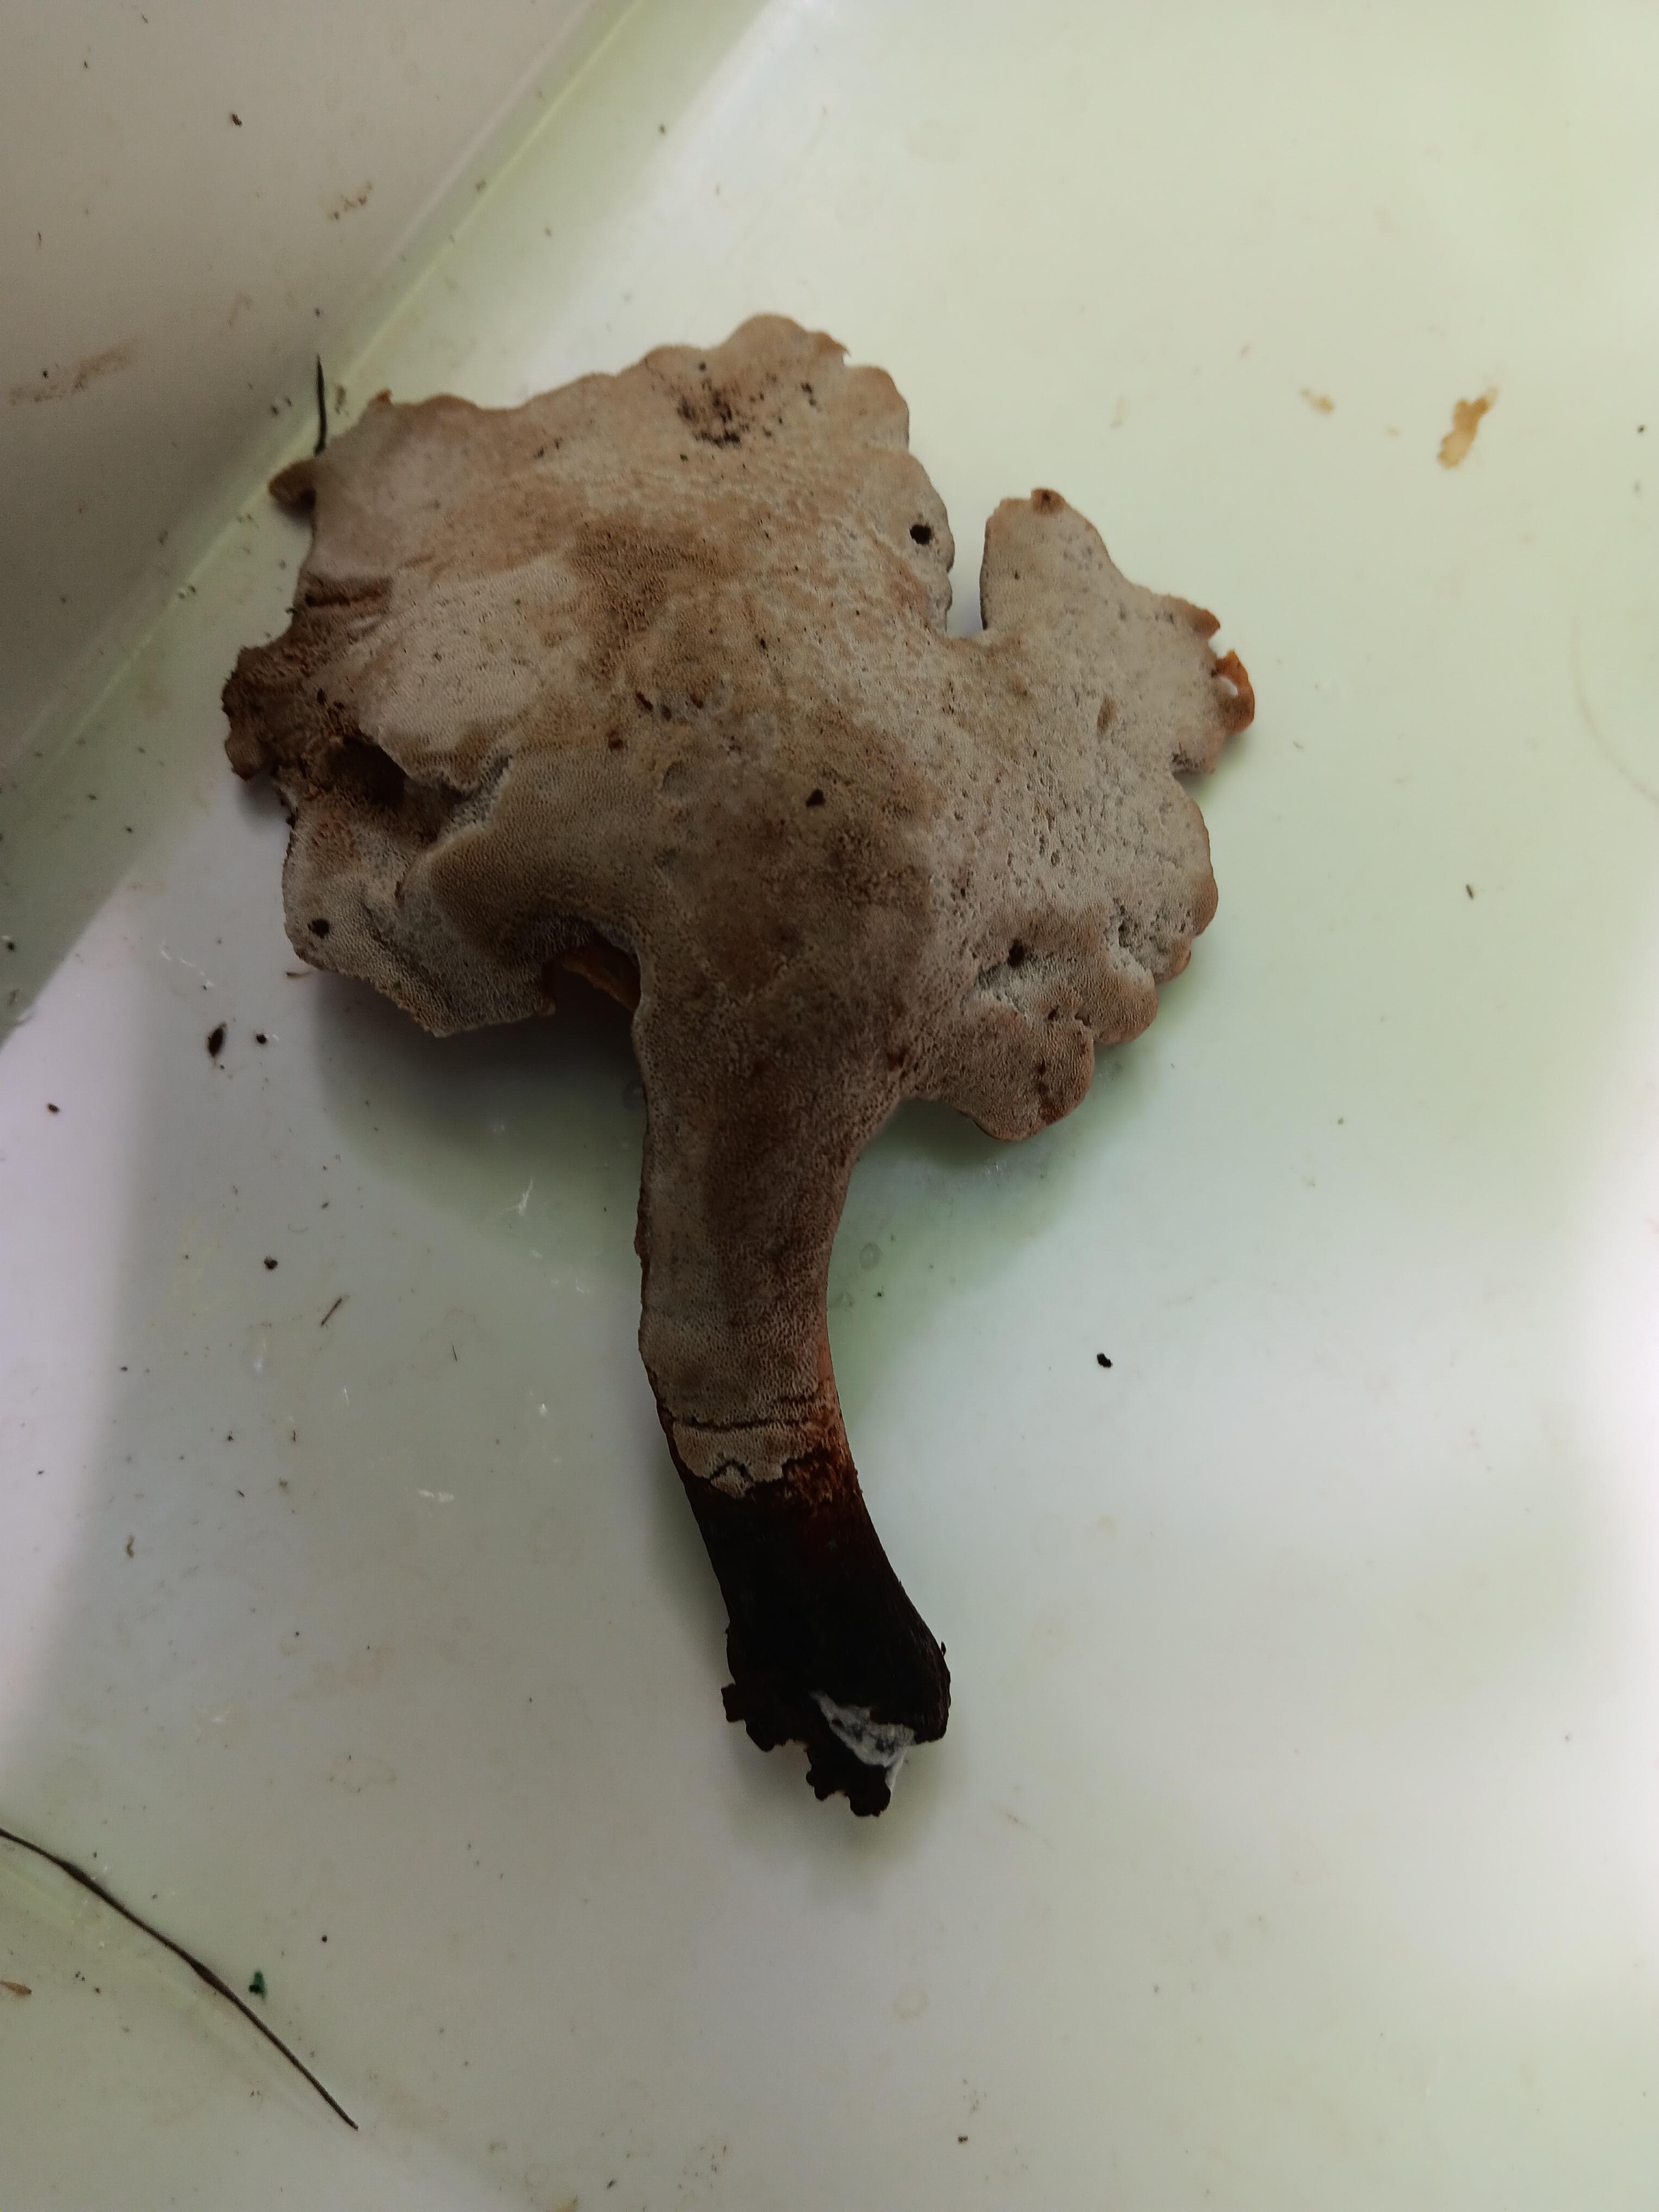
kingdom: Fungi
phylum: Basidiomycota
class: Agaricomycetes
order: Polyporales
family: Polyporaceae
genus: Cerioporus
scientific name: Cerioporus varius
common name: foranderlig stilkporesvamp
